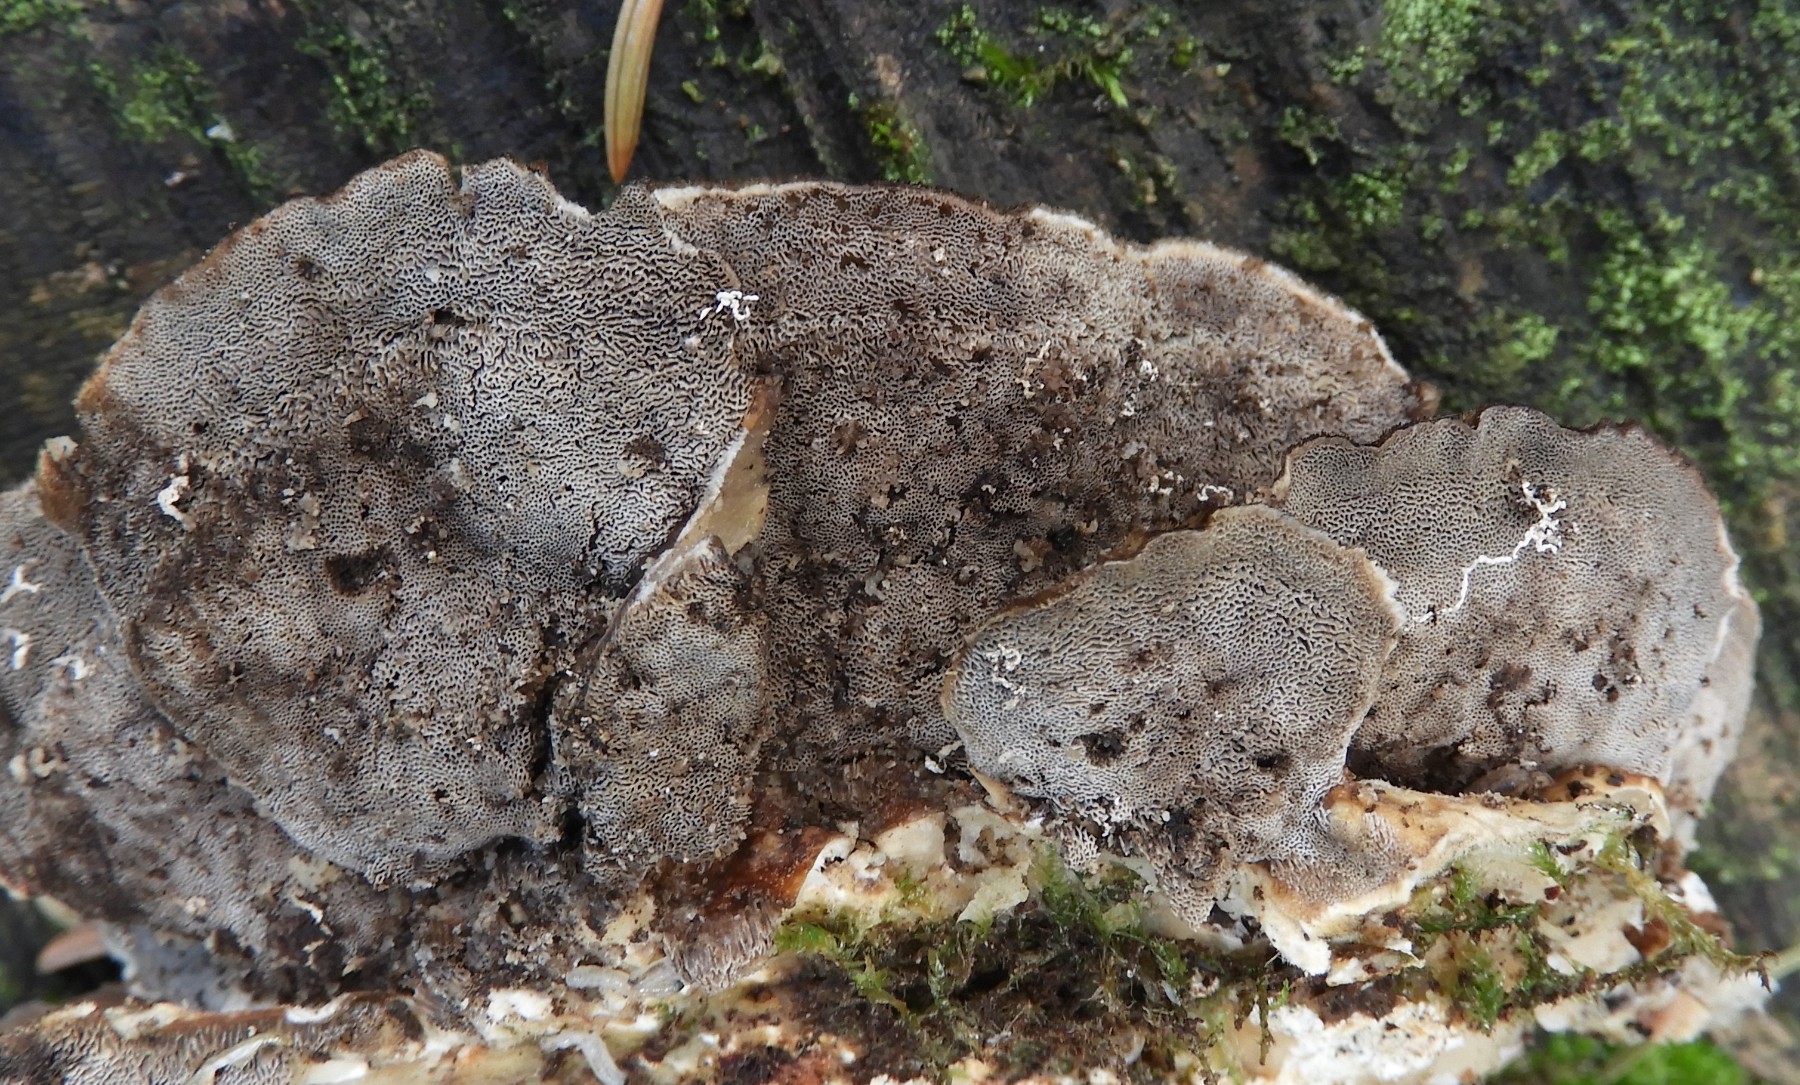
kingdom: Fungi
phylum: Basidiomycota
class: Agaricomycetes
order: Polyporales
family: Polyporaceae
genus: Trametes
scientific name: Trametes hirsuta
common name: håret læderporesvamp
